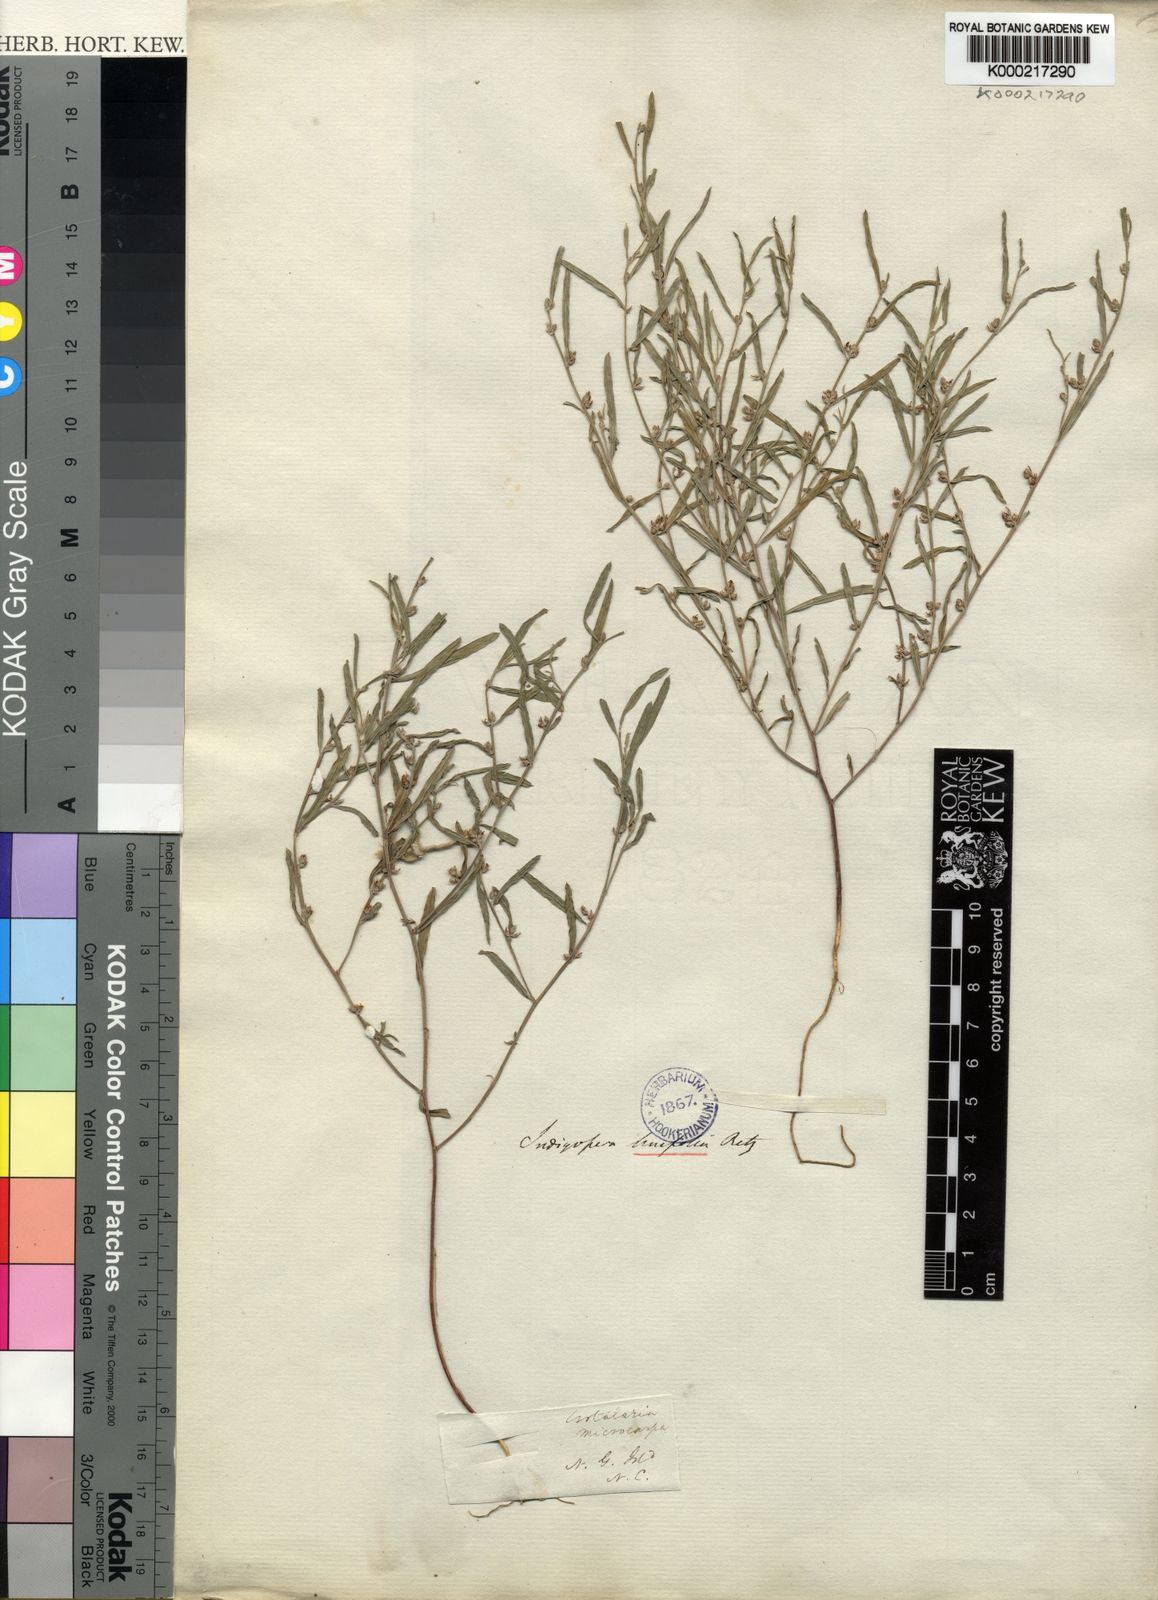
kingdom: Plantae
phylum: Tracheophyta
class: Magnoliopsida
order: Fabales
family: Fabaceae
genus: Indigofera
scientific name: Indigofera linifolia
